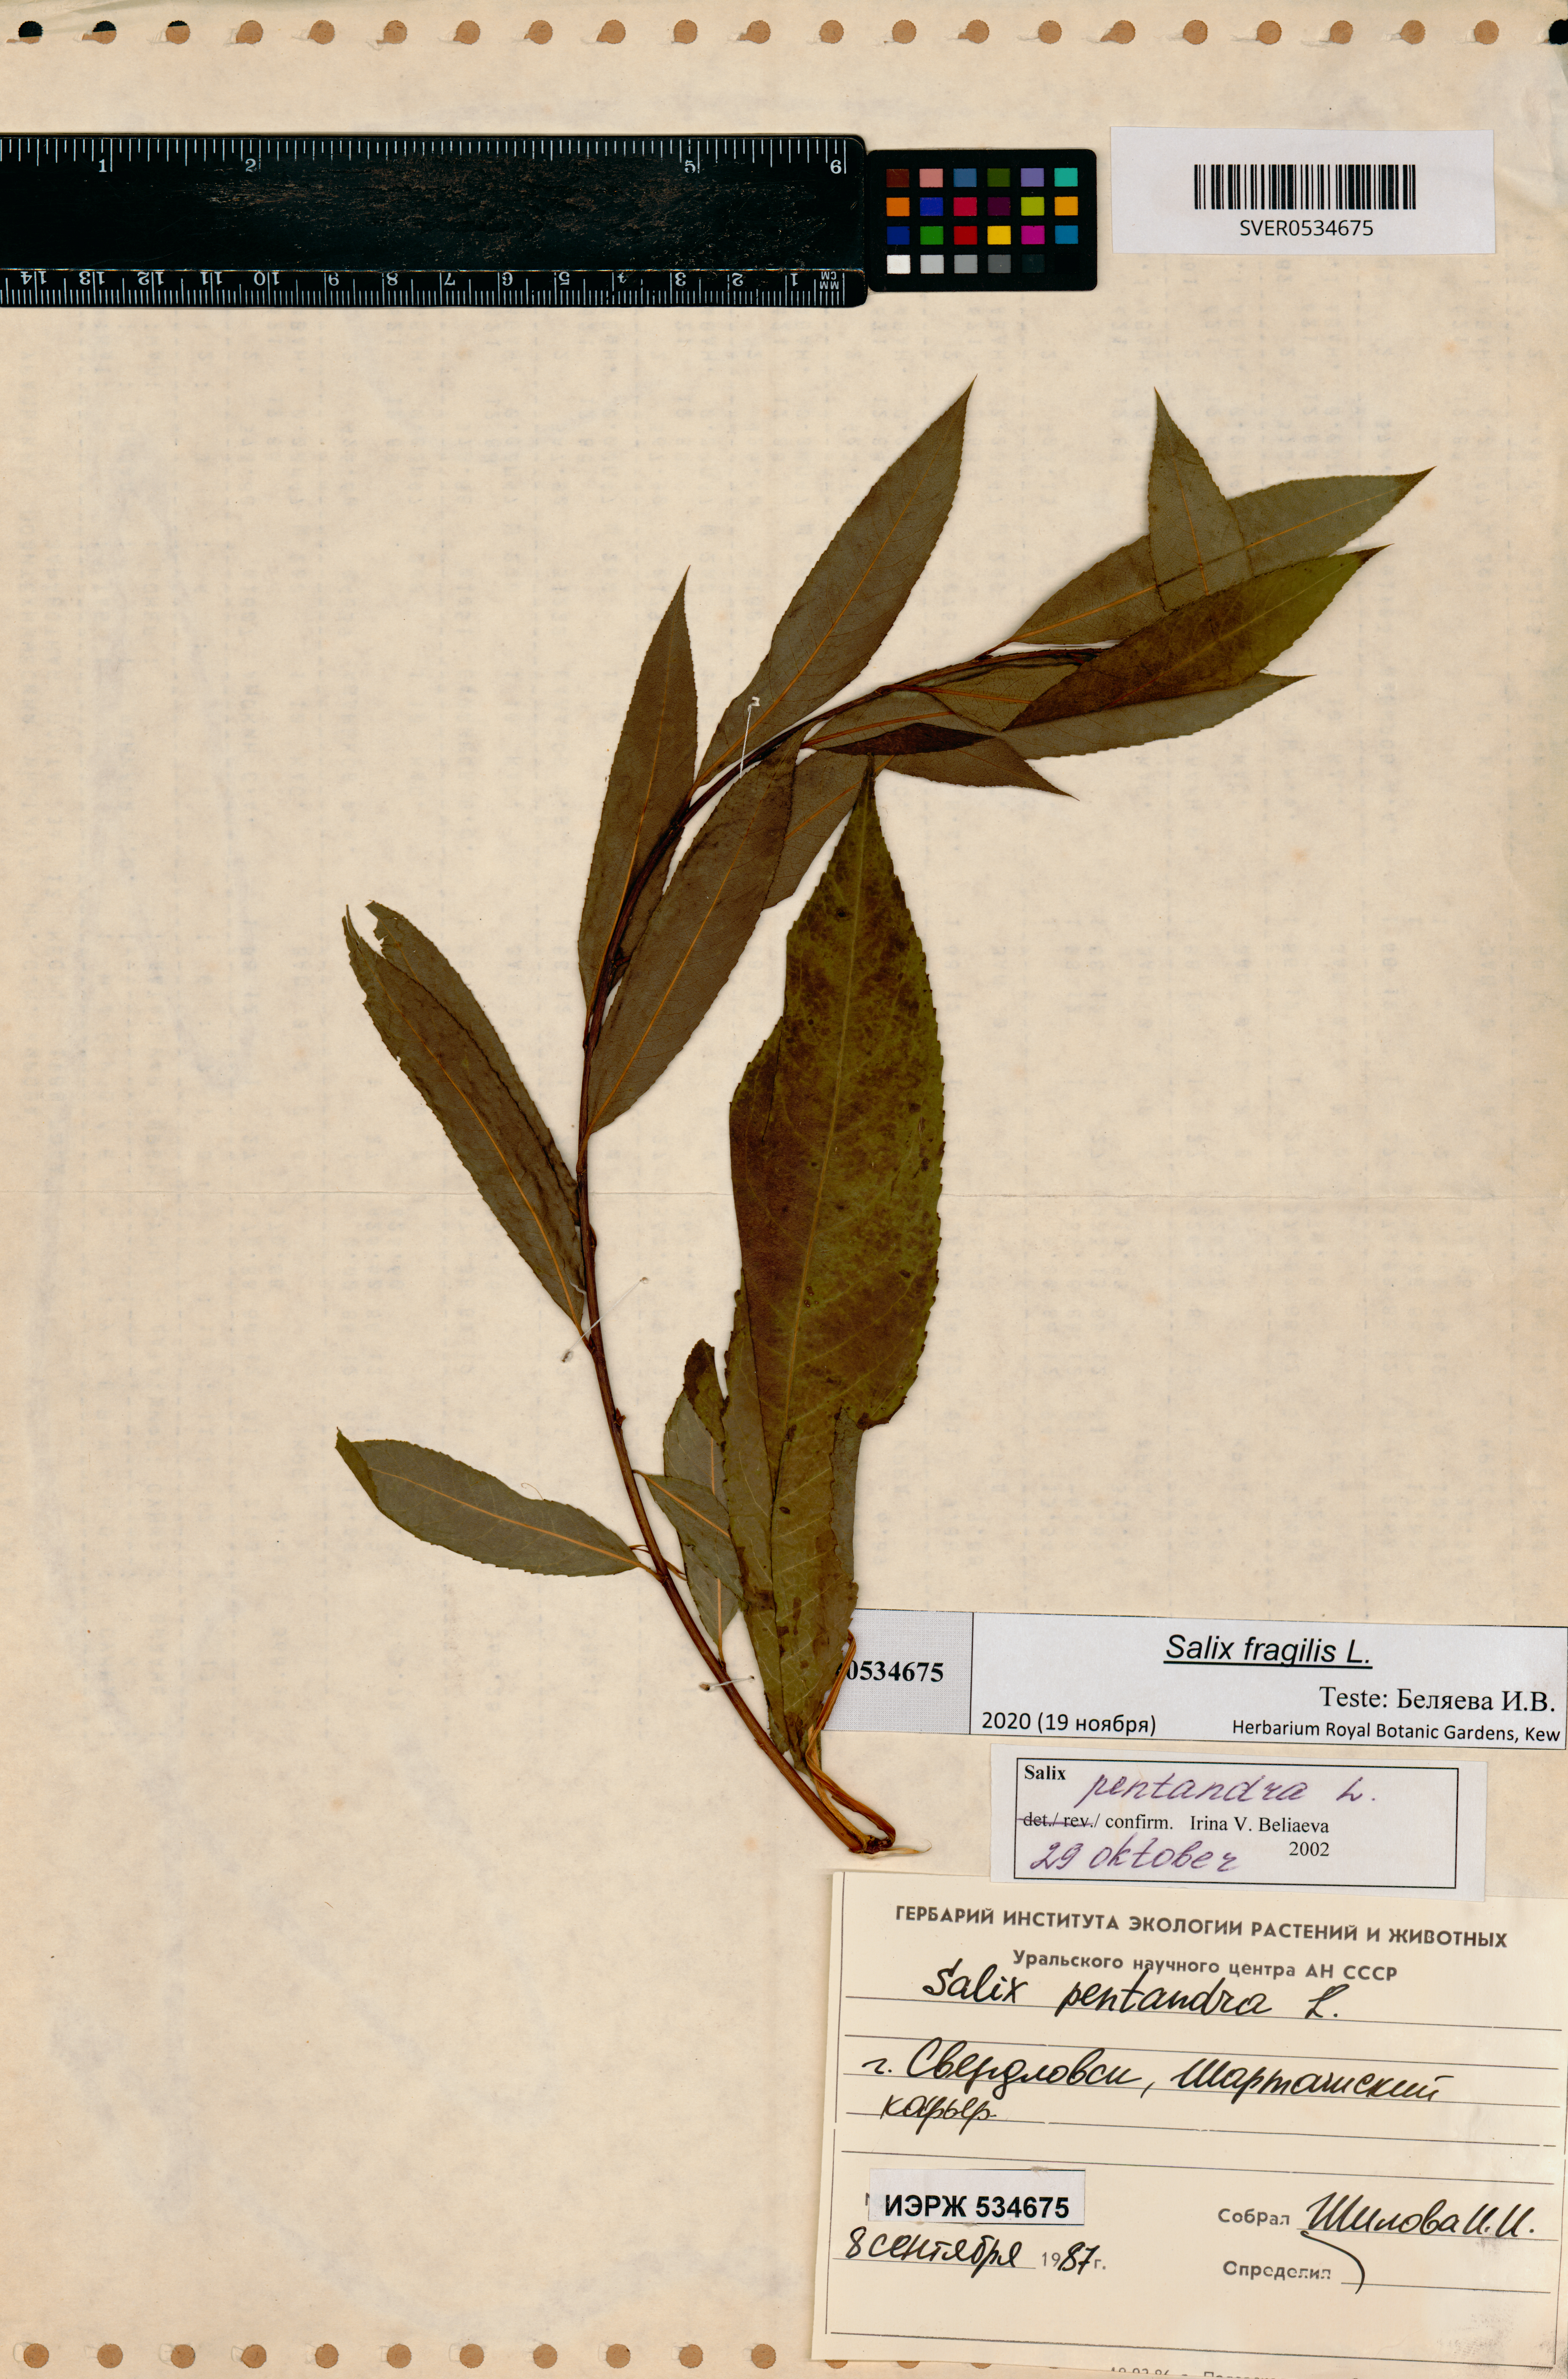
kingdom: Plantae
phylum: Tracheophyta
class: Magnoliopsida
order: Malpighiales
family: Salicaceae
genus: Salix
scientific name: Salix fragilis
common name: Crack willow
